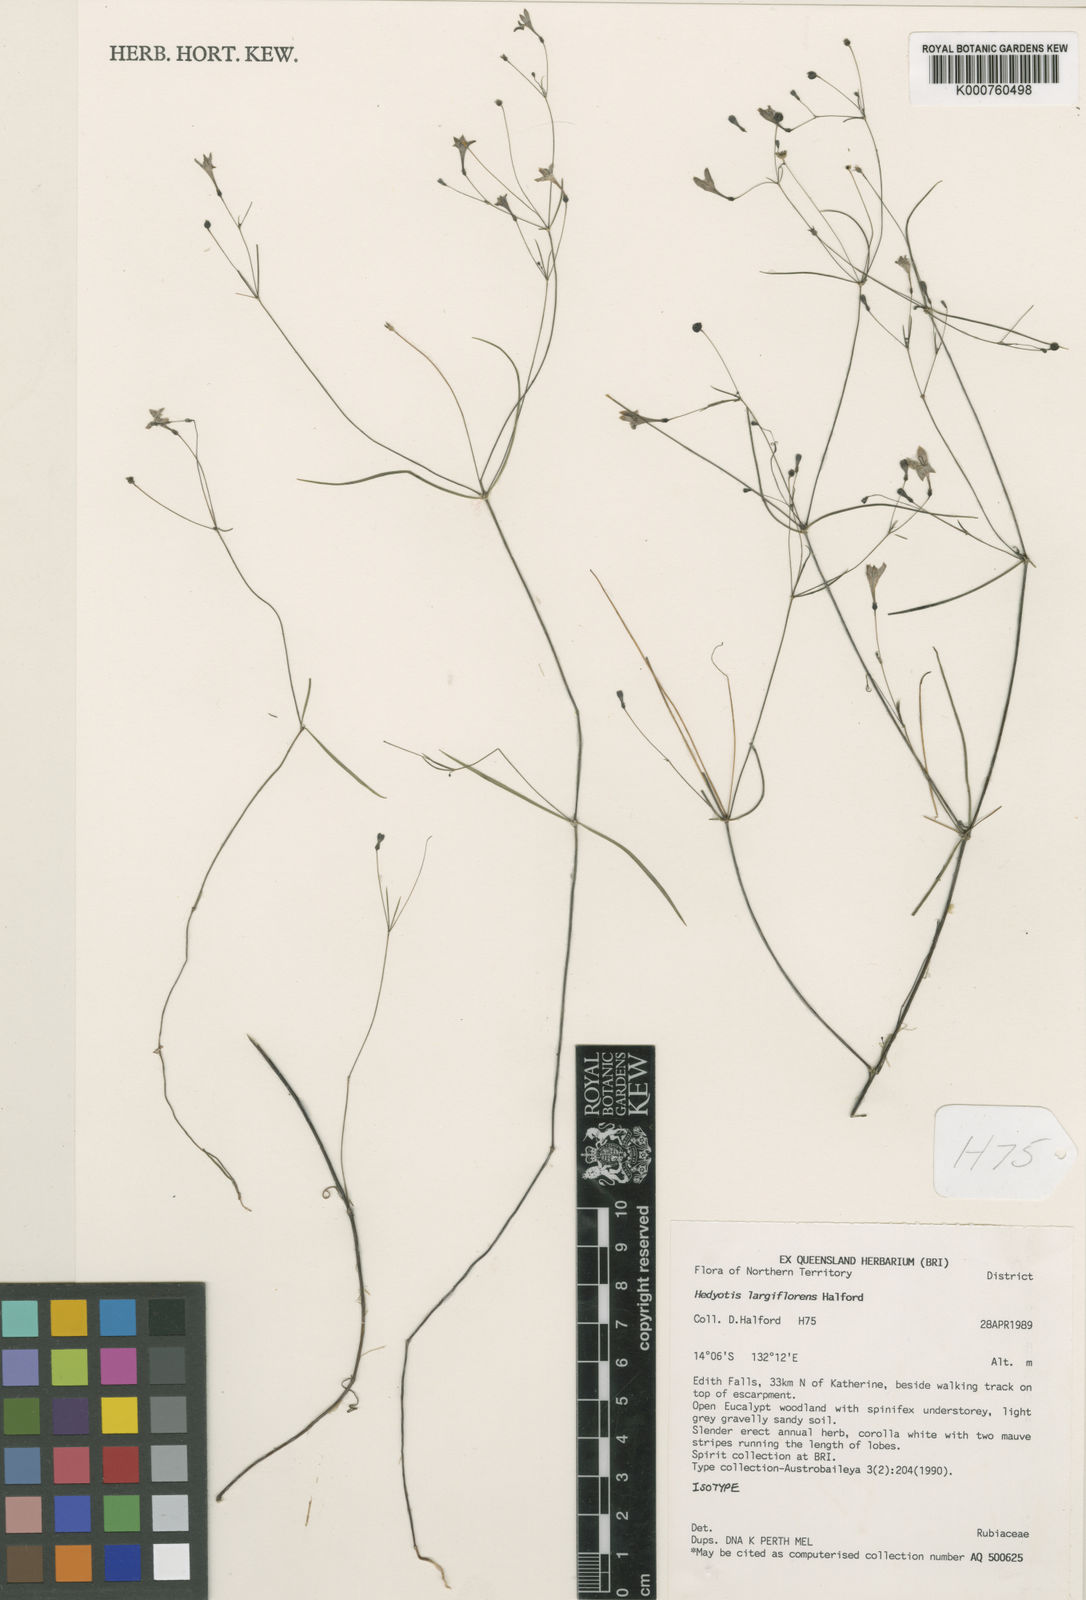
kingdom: Plantae
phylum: Tracheophyta
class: Magnoliopsida
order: Gentianales
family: Rubiaceae
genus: Scleromitrion
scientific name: Scleromitrion largiflorens
